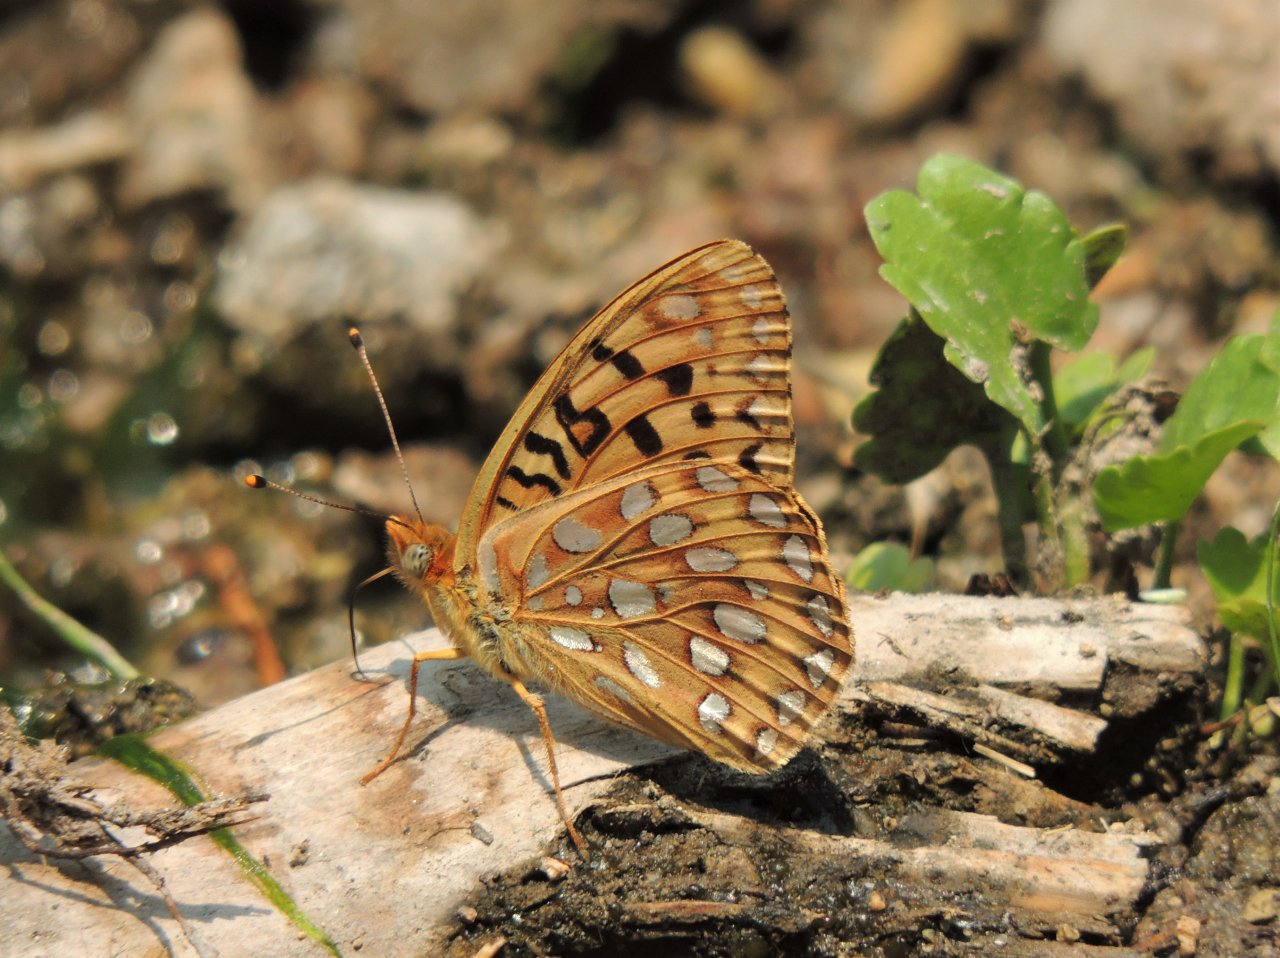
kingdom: Animalia
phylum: Arthropoda
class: Insecta
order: Lepidoptera
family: Nymphalidae
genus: Speyeria
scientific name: Speyeria zerene
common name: Zerene Fritillary
